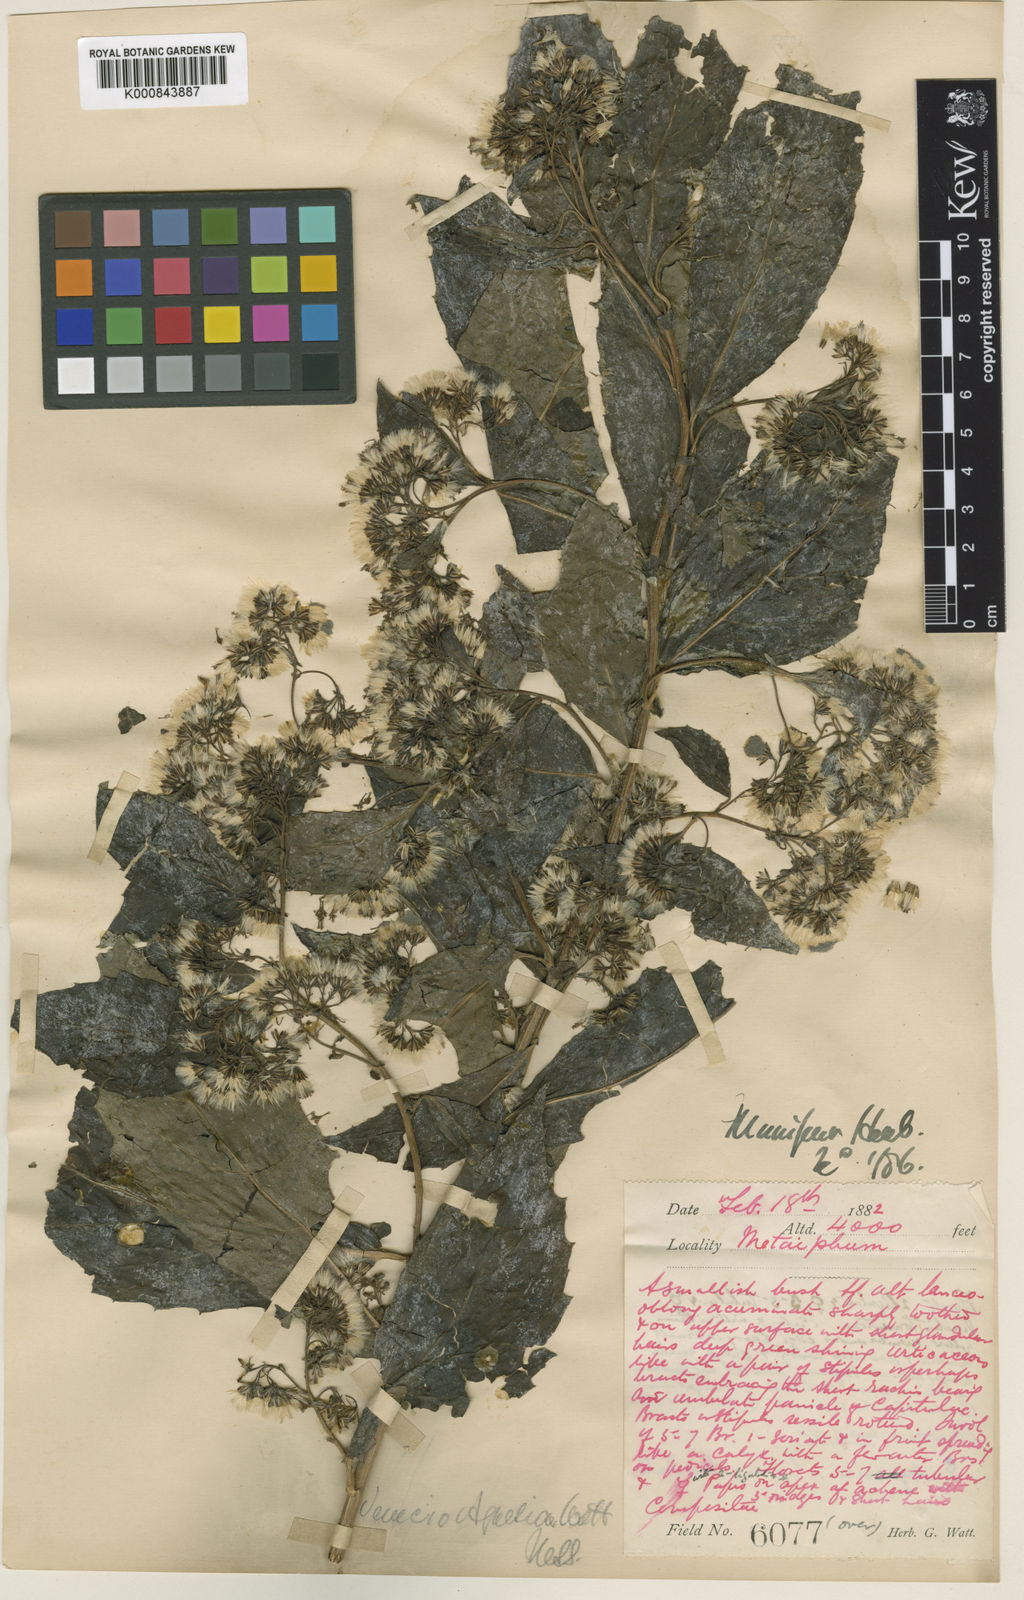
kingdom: Plantae
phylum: Tracheophyta
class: Magnoliopsida
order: Asterales
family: Asteraceae
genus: Synotis
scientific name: Synotis
